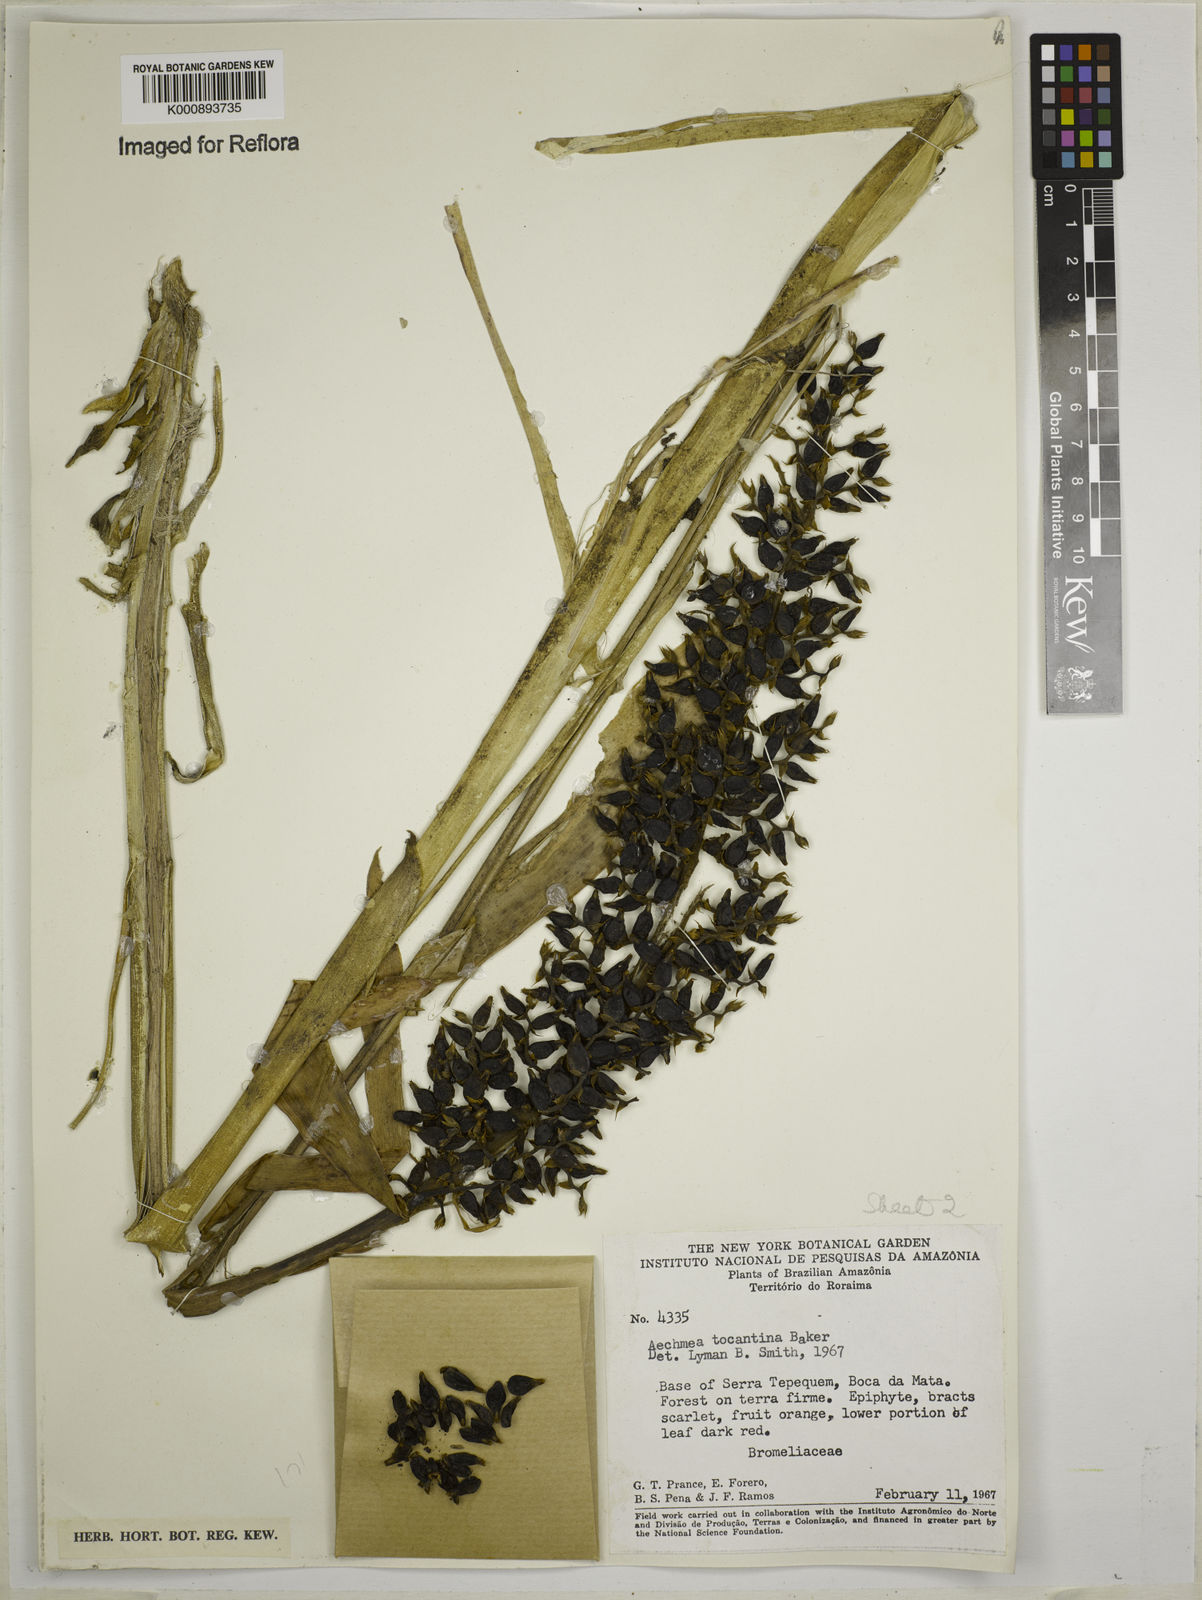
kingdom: Plantae
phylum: Tracheophyta
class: Liliopsida
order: Poales
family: Bromeliaceae
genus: Aechmea
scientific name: Aechmea tocantina
